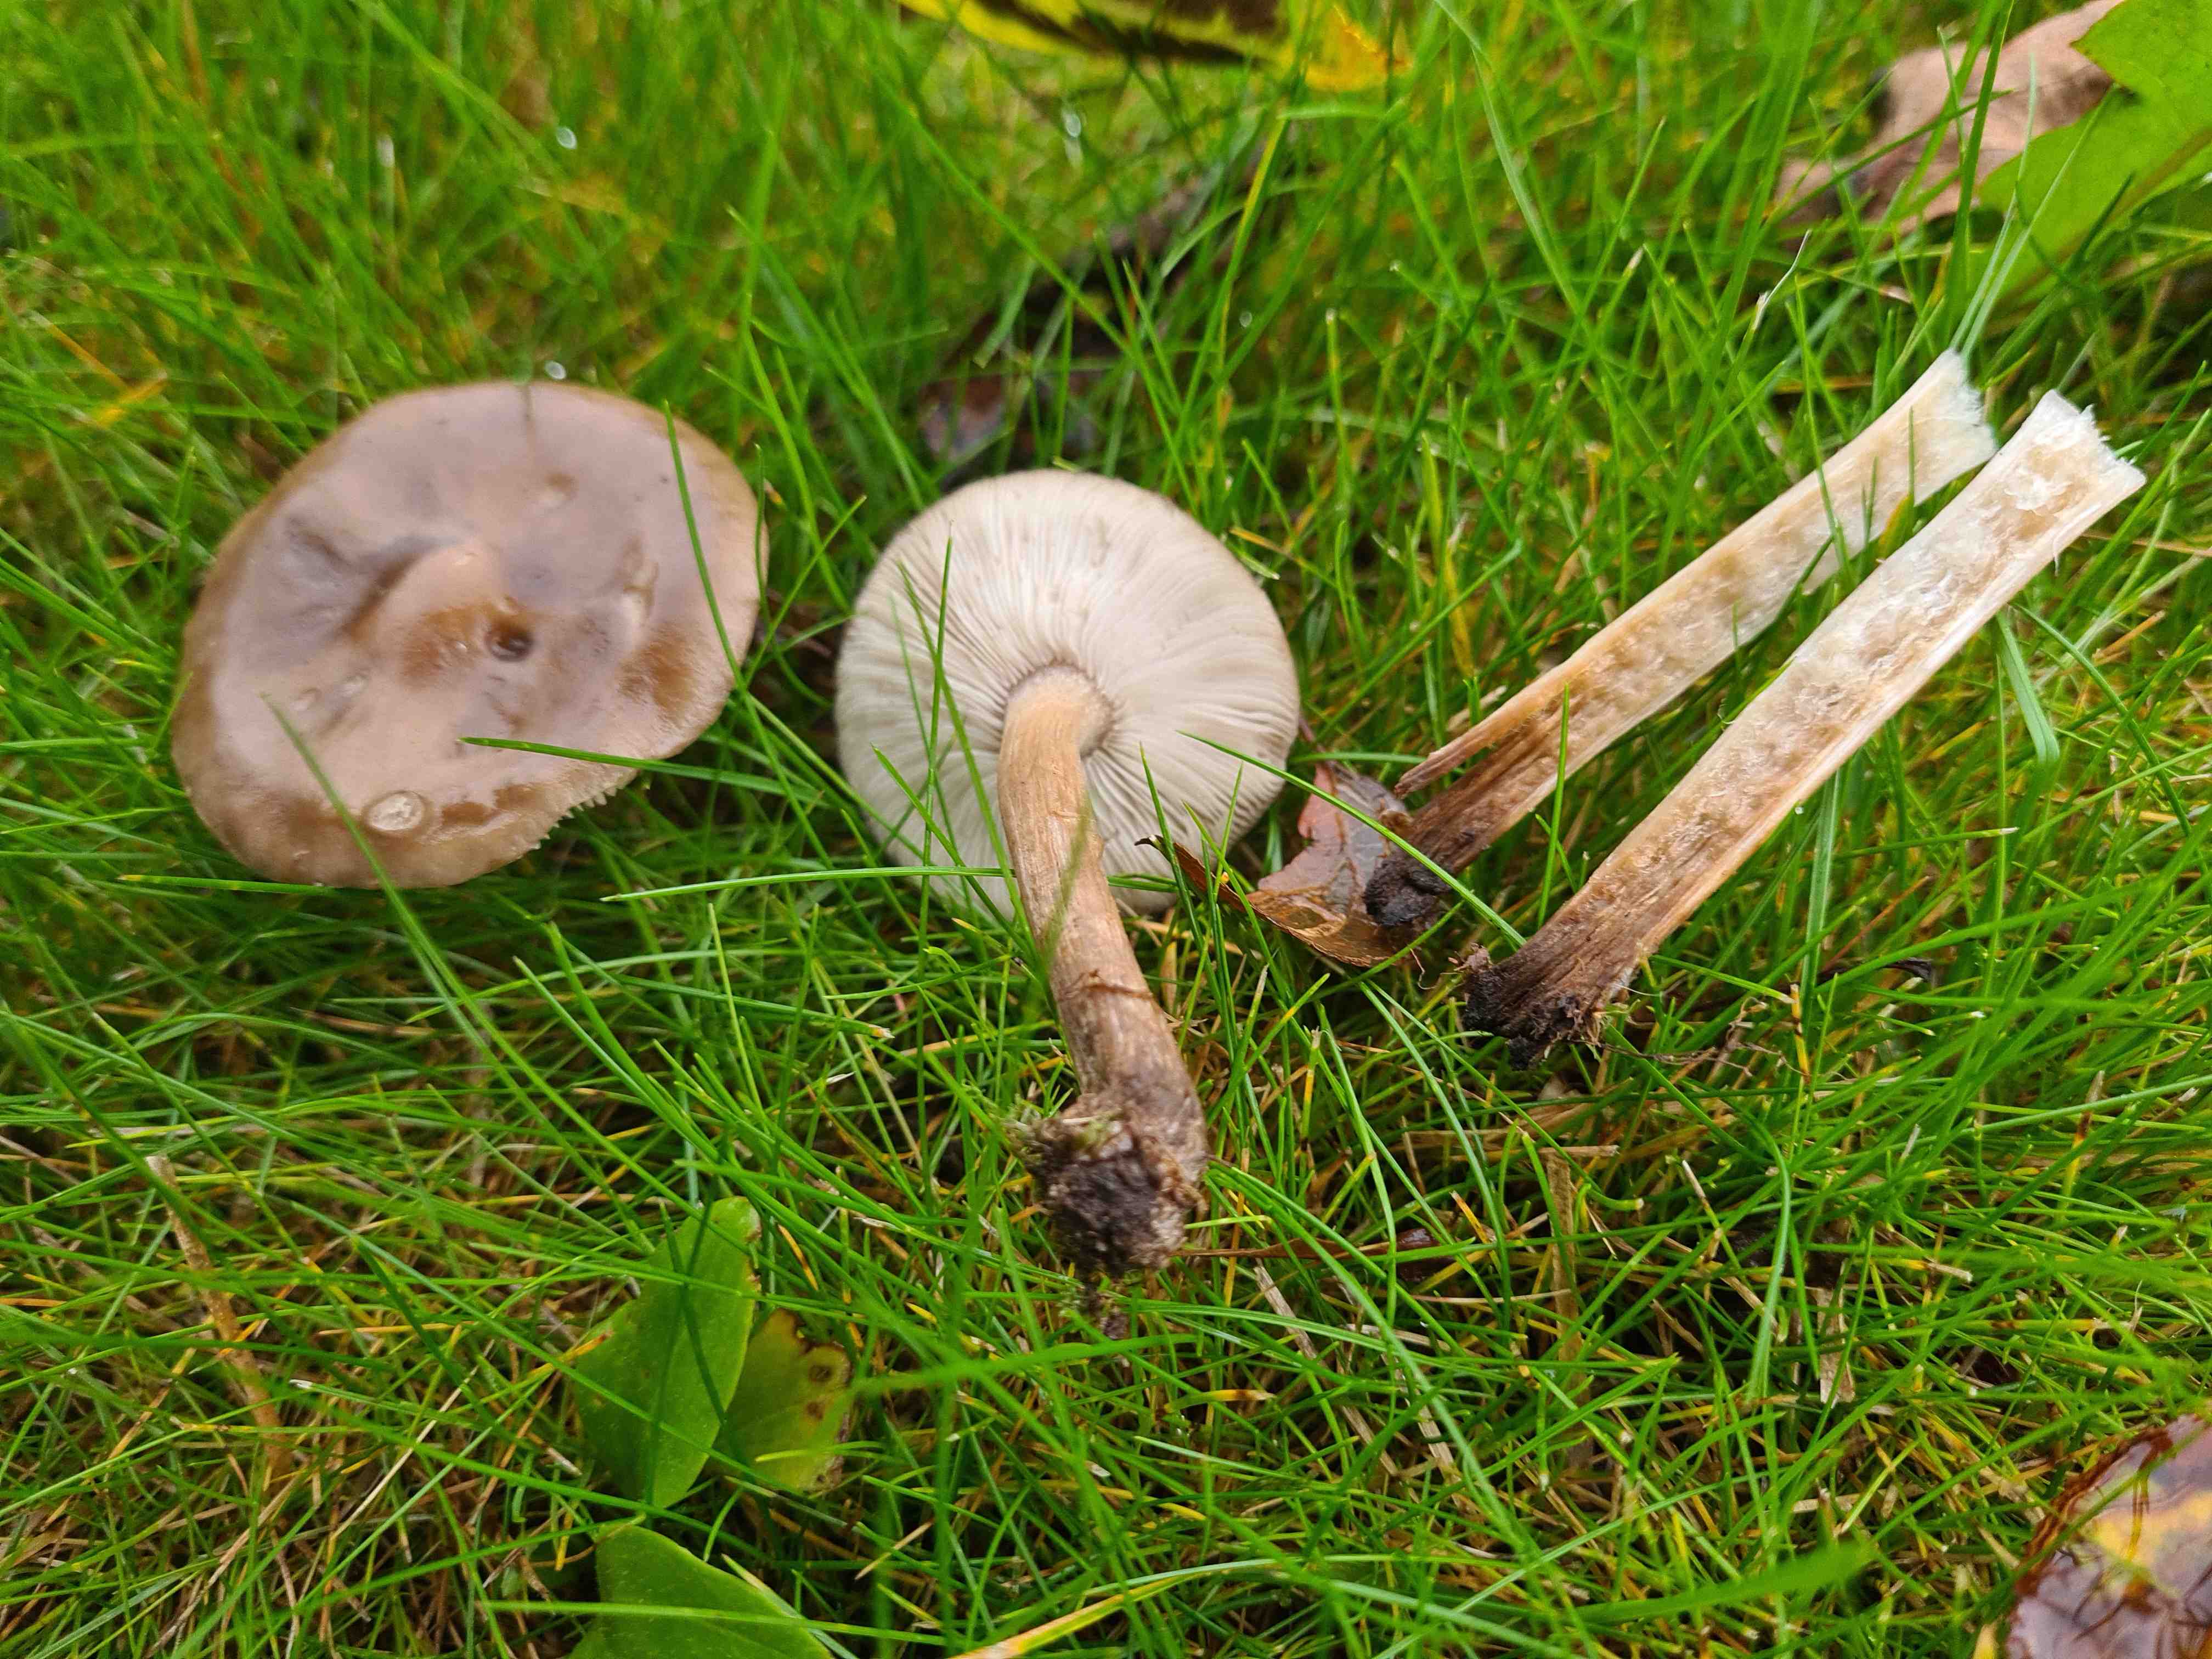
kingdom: Fungi
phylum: Basidiomycota
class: Agaricomycetes
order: Agaricales
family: Tricholomataceae
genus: Melanoleuca
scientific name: Melanoleuca
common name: munkehat
